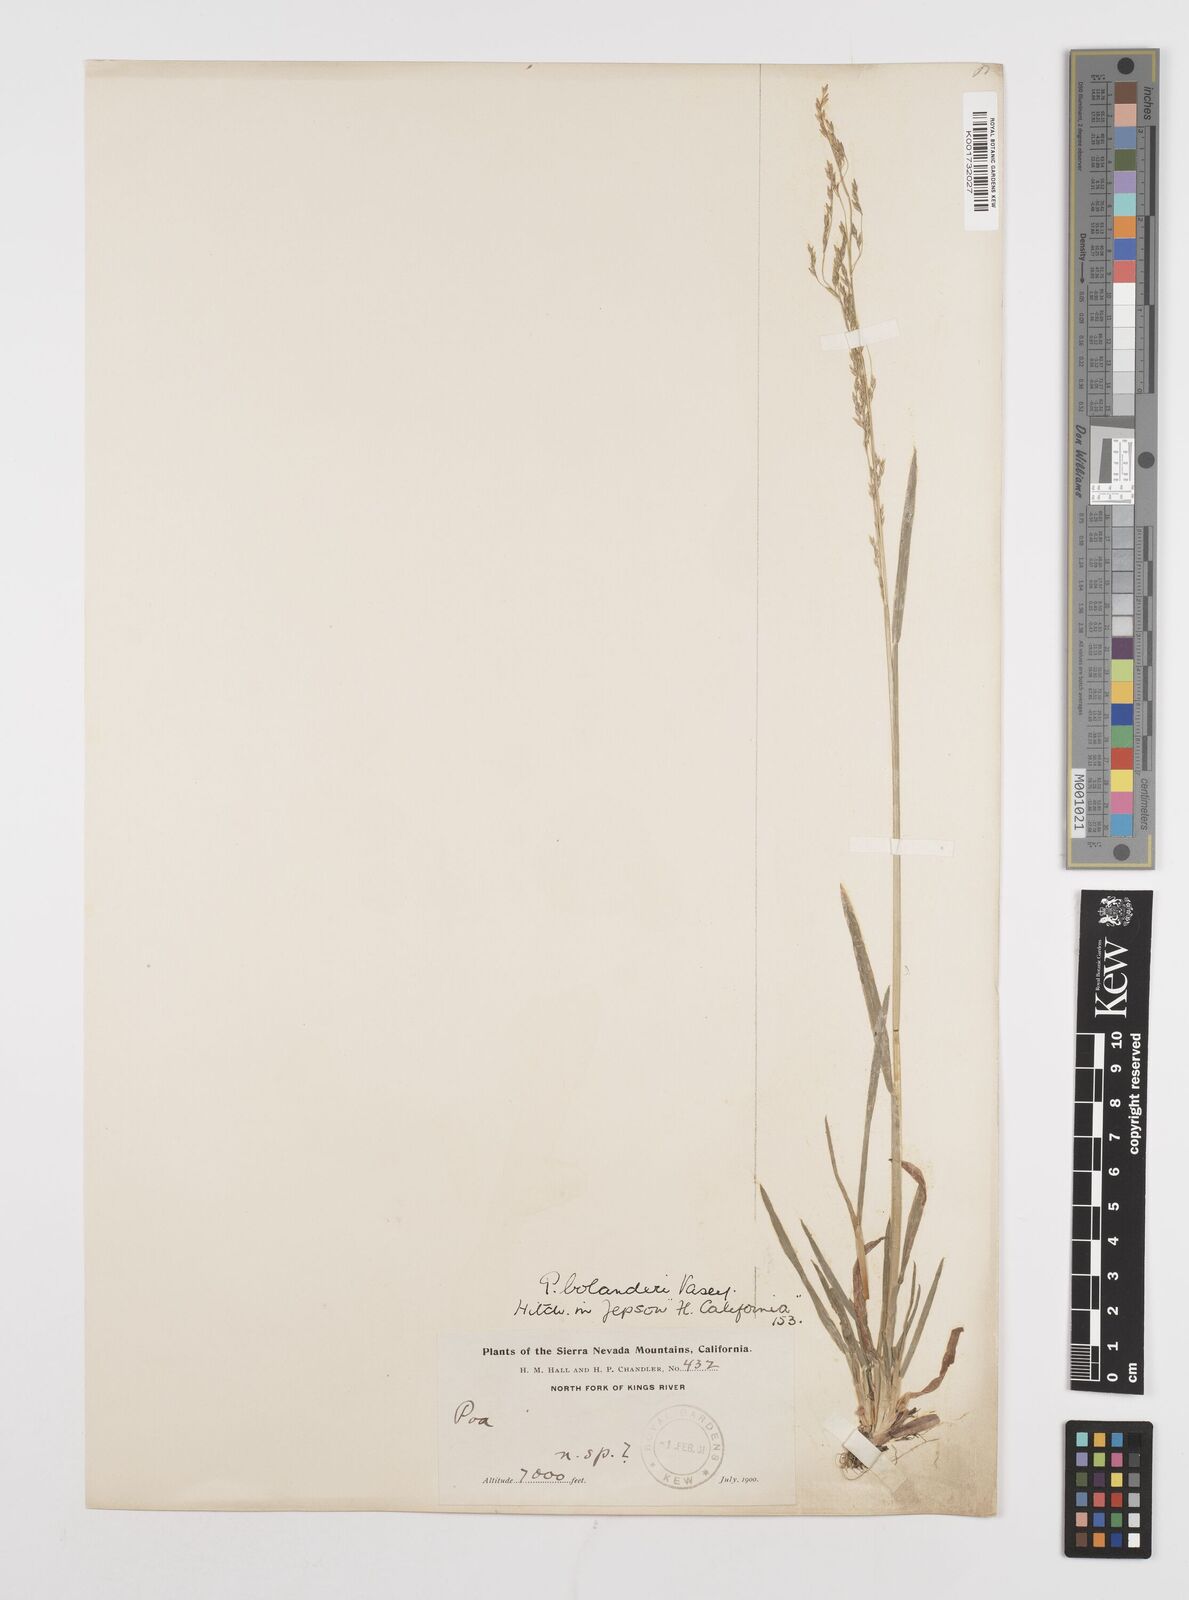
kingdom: Plantae
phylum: Tracheophyta
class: Liliopsida
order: Poales
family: Poaceae
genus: Poa
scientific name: Poa bolanderi
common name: Bolander's bluegrass
